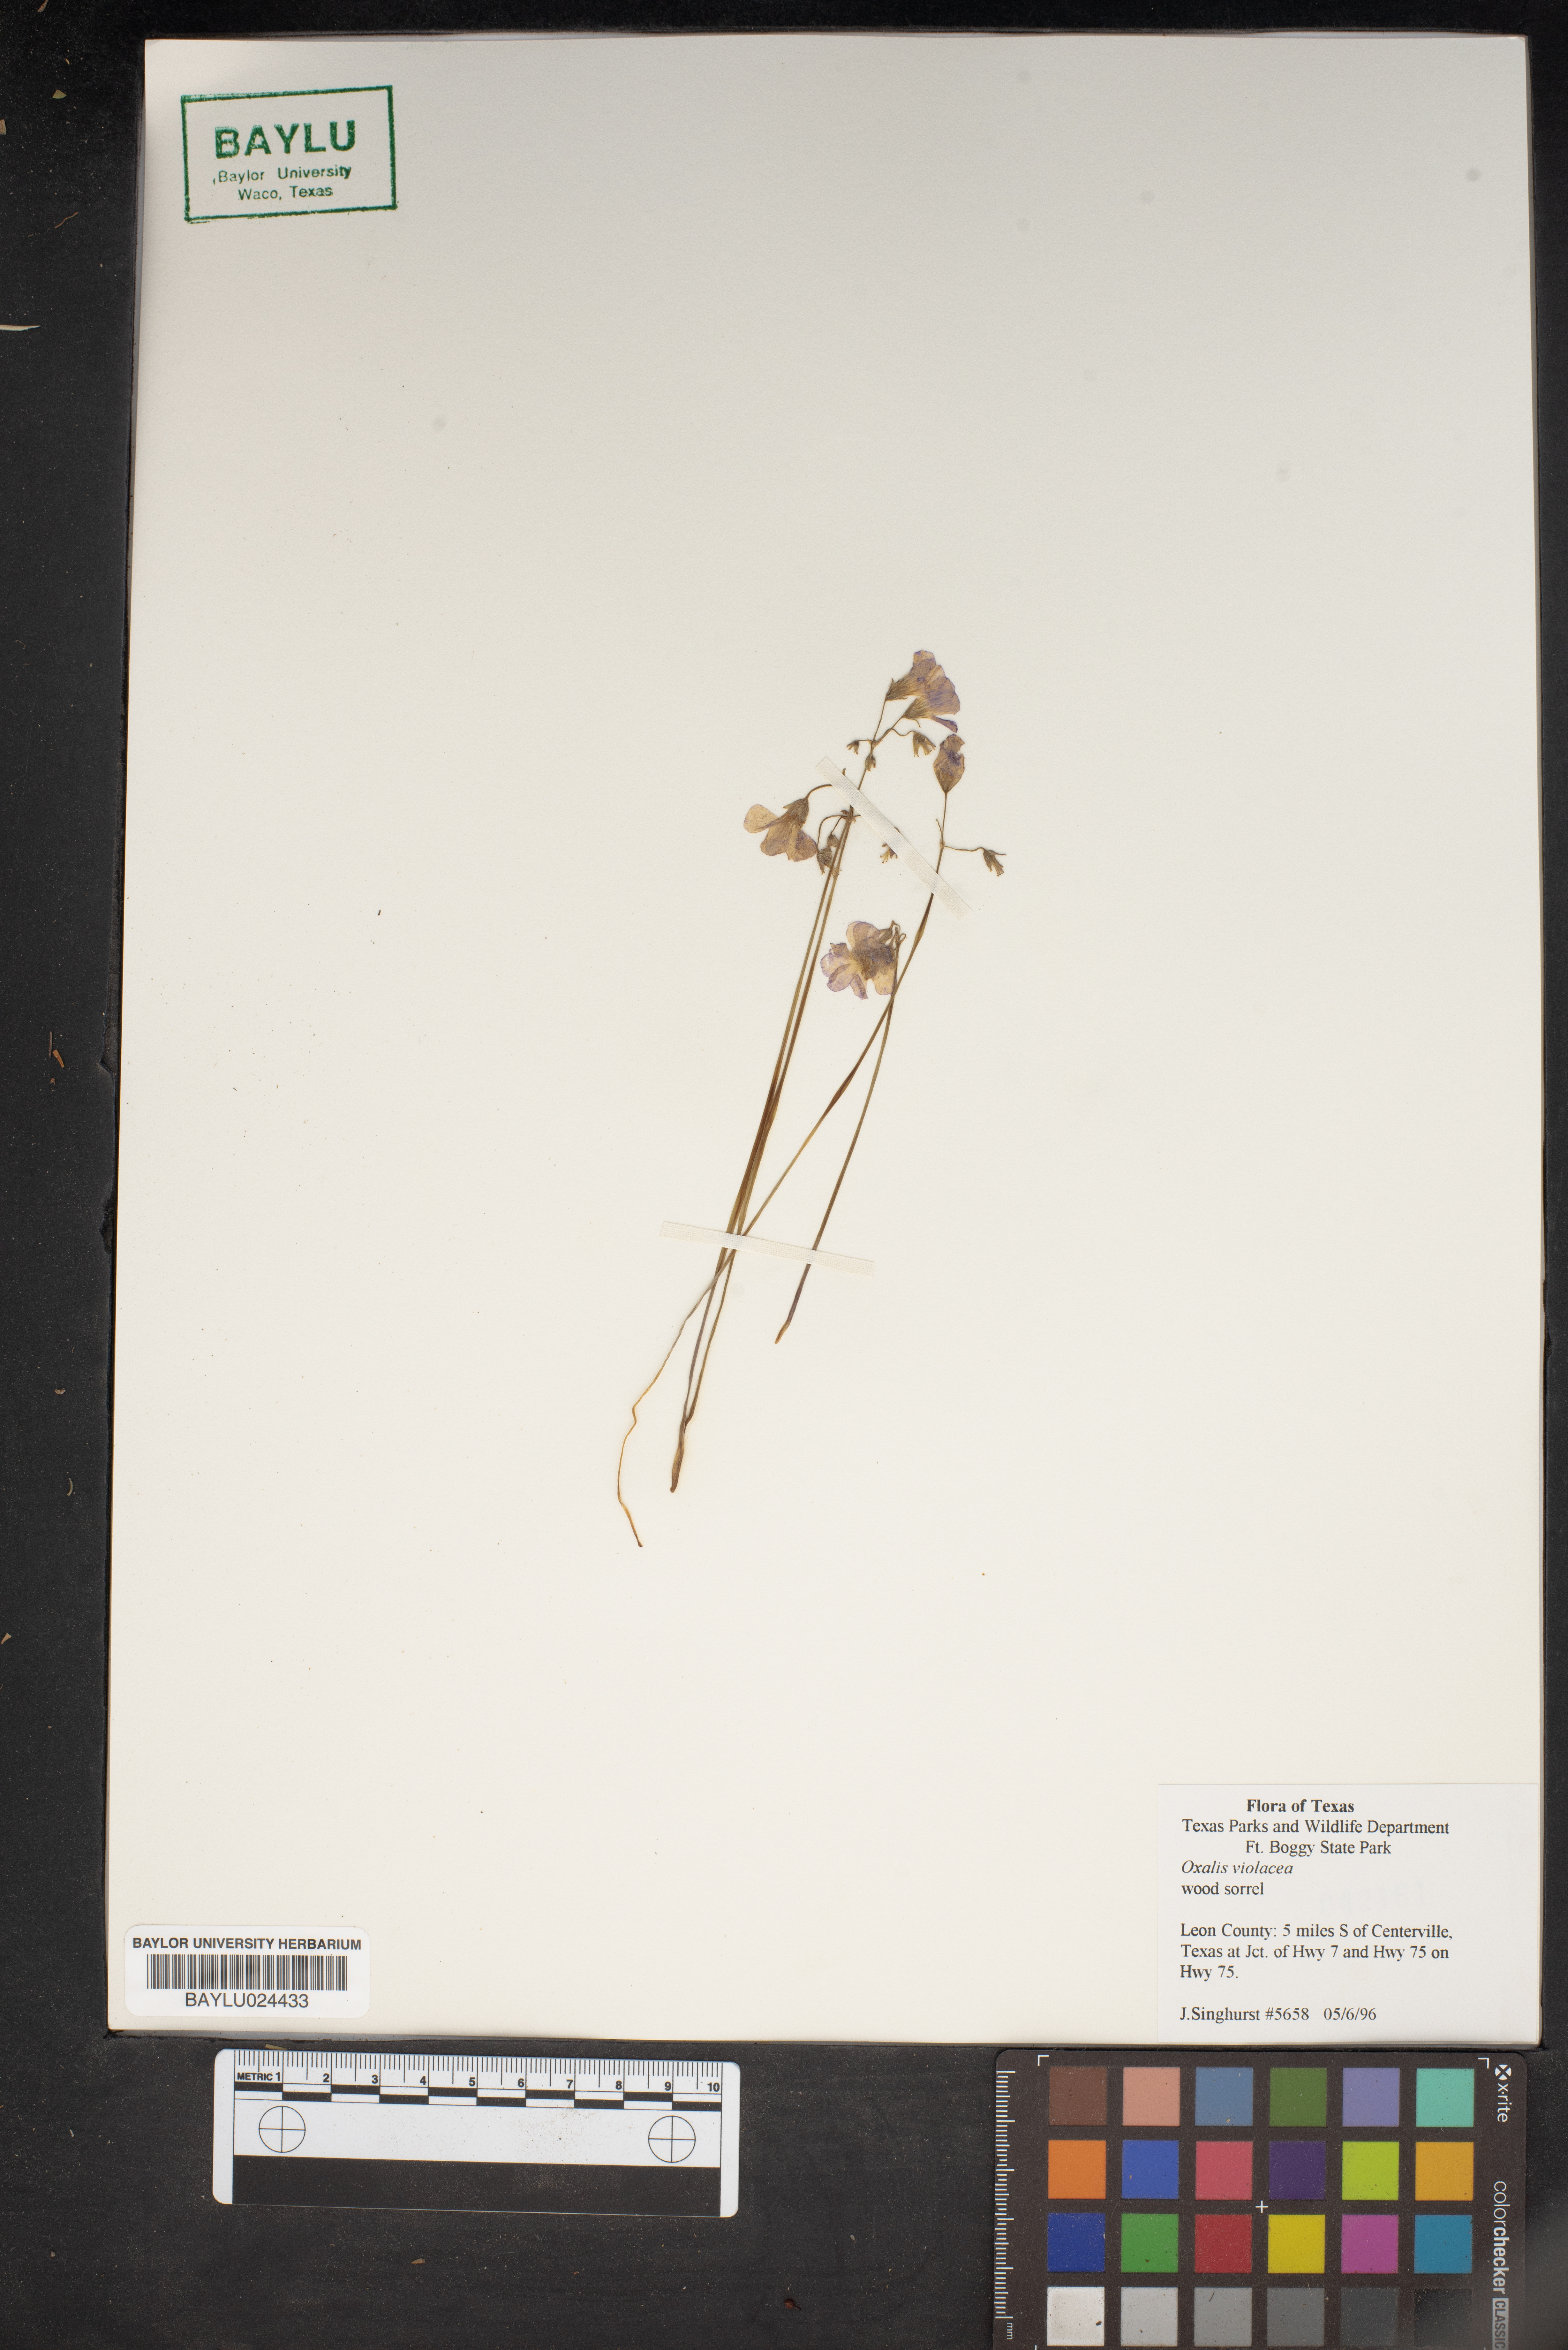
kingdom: Plantae
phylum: Tracheophyta
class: Magnoliopsida
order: Oxalidales
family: Oxalidaceae
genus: Oxalis
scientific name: Oxalis violacea
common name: Violet wood-sorrel
